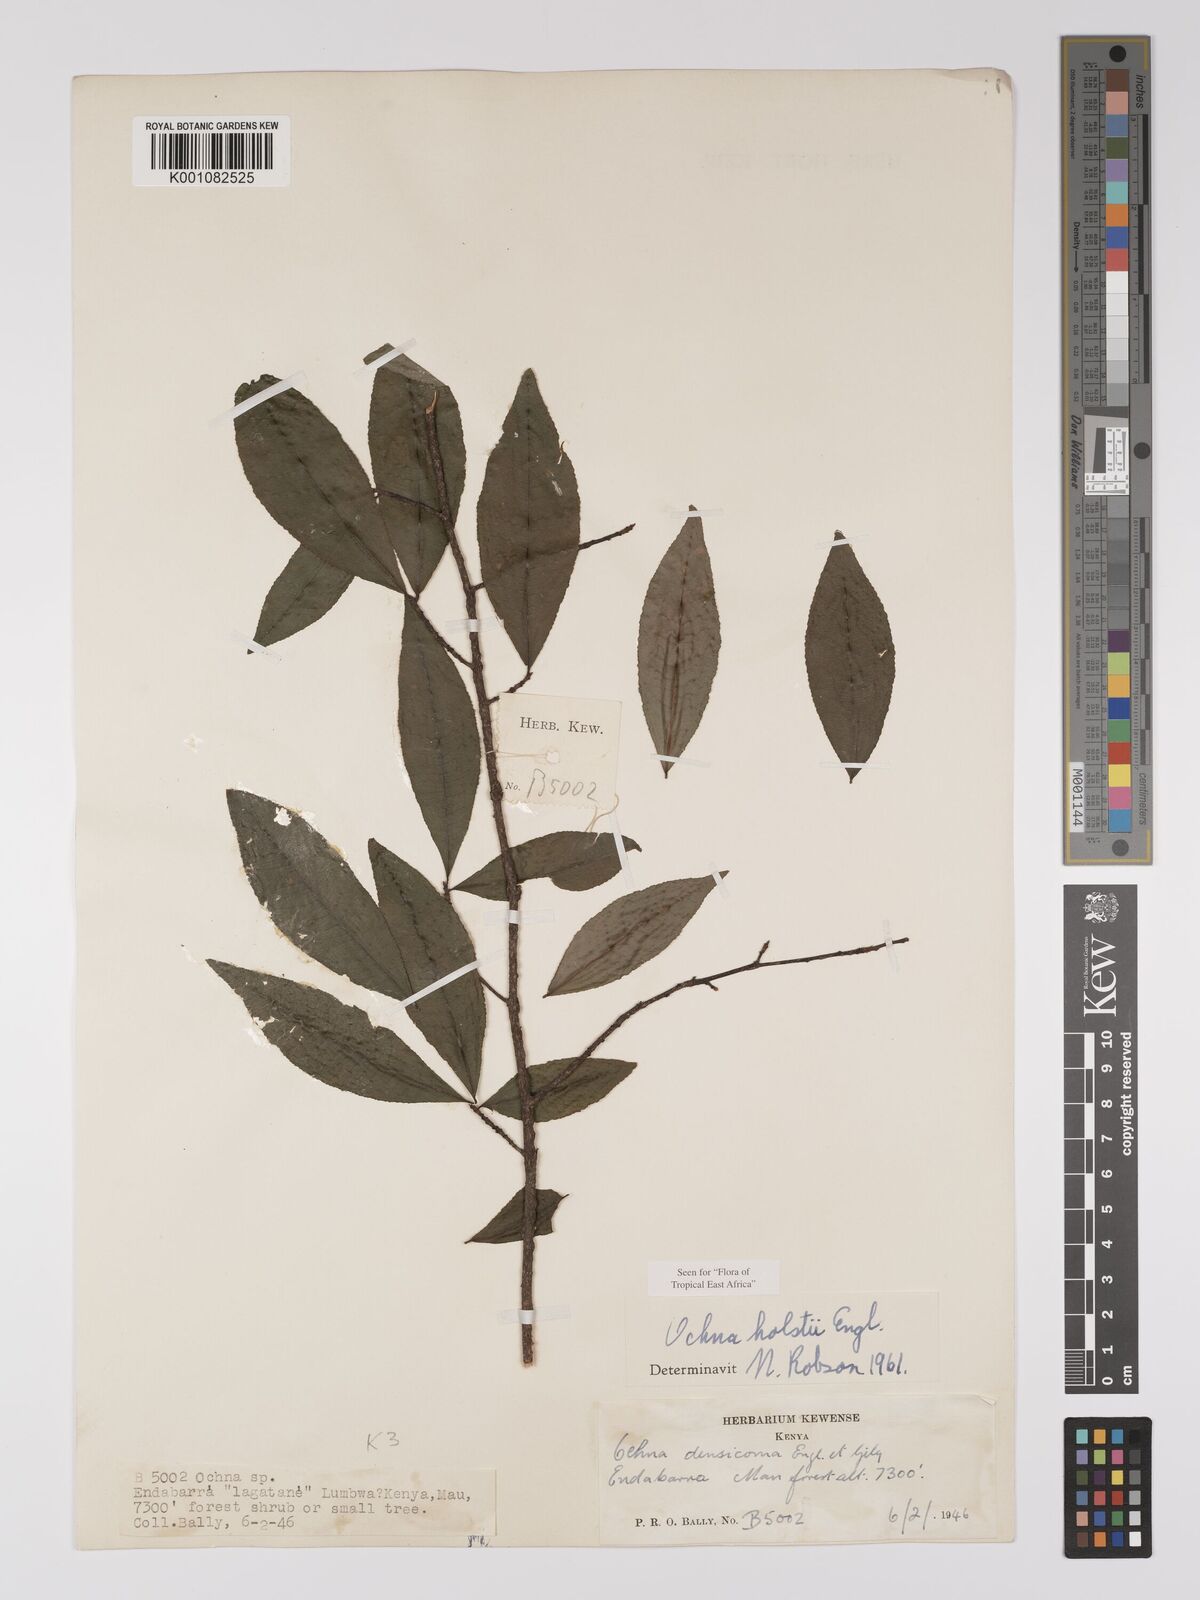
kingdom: Plantae
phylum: Tracheophyta
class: Magnoliopsida
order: Malpighiales
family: Ochnaceae
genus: Ochna
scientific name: Ochna holstii
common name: Red ironwood
